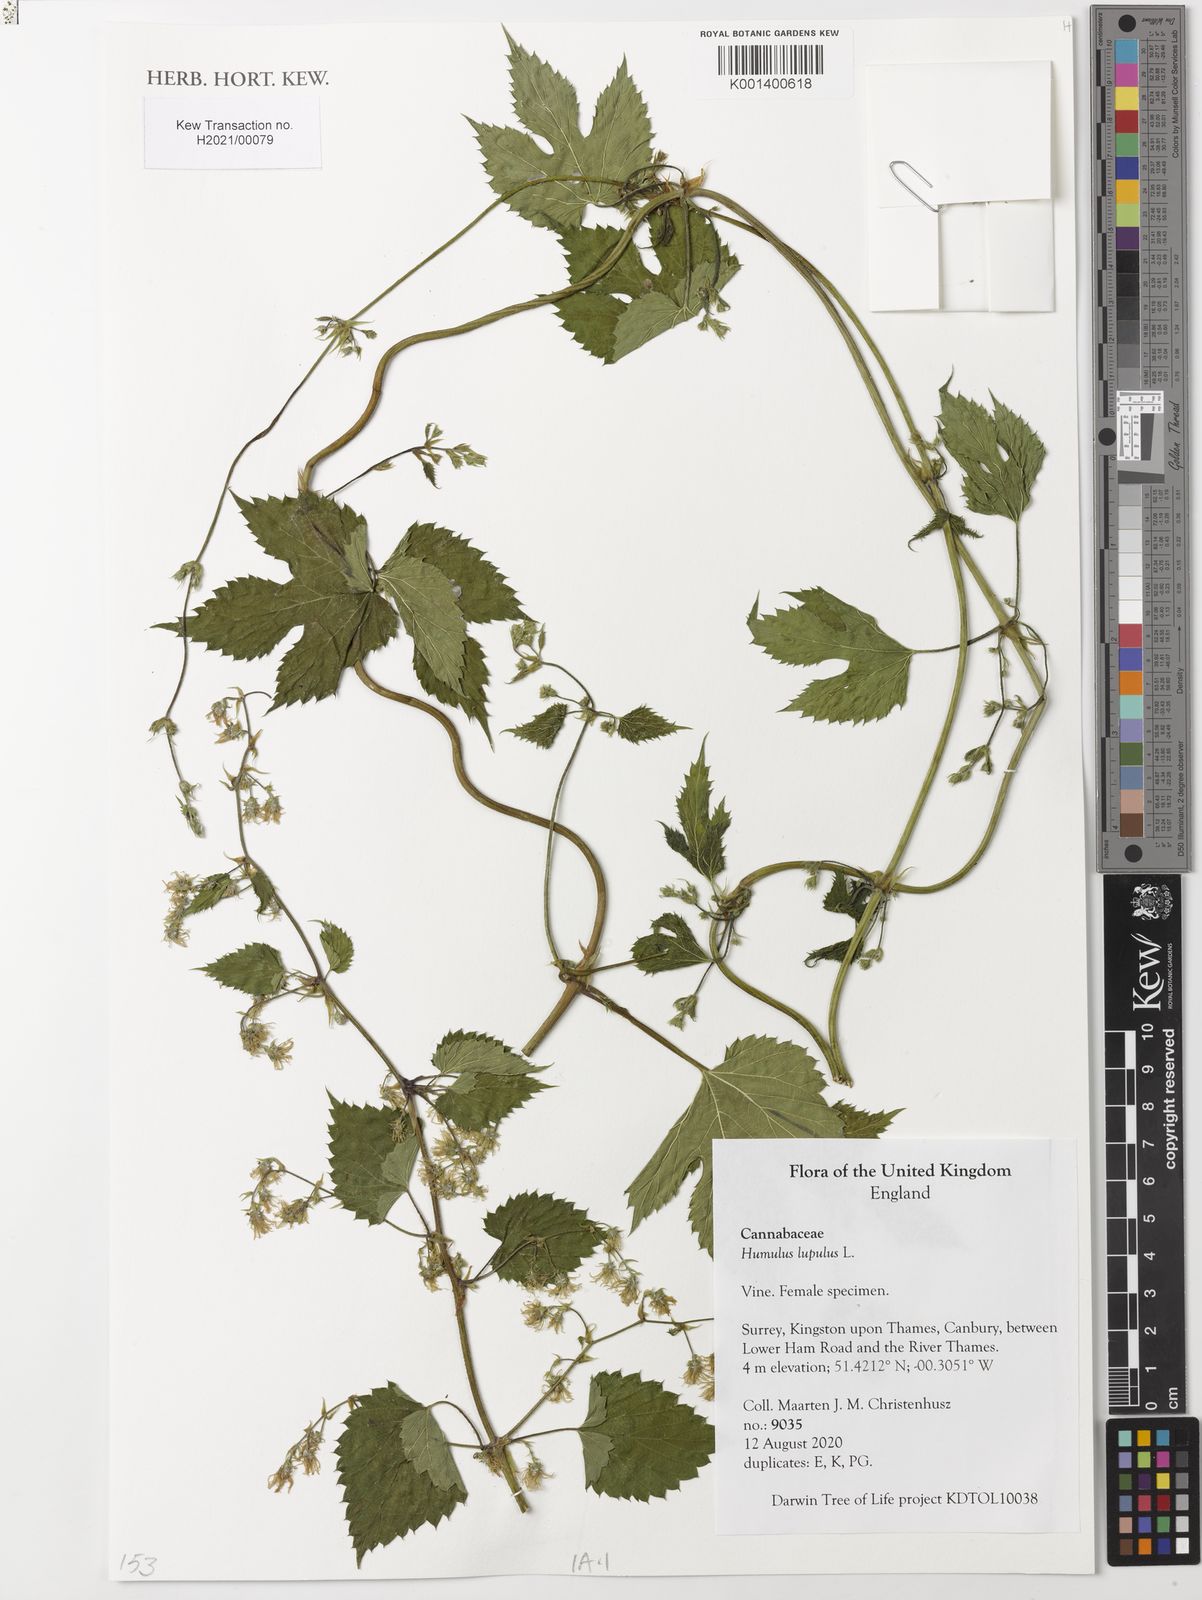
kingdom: Plantae
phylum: Tracheophyta
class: Magnoliopsida
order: Rosales
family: Cannabaceae
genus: Humulus
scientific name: Humulus lupulus
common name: Hop
